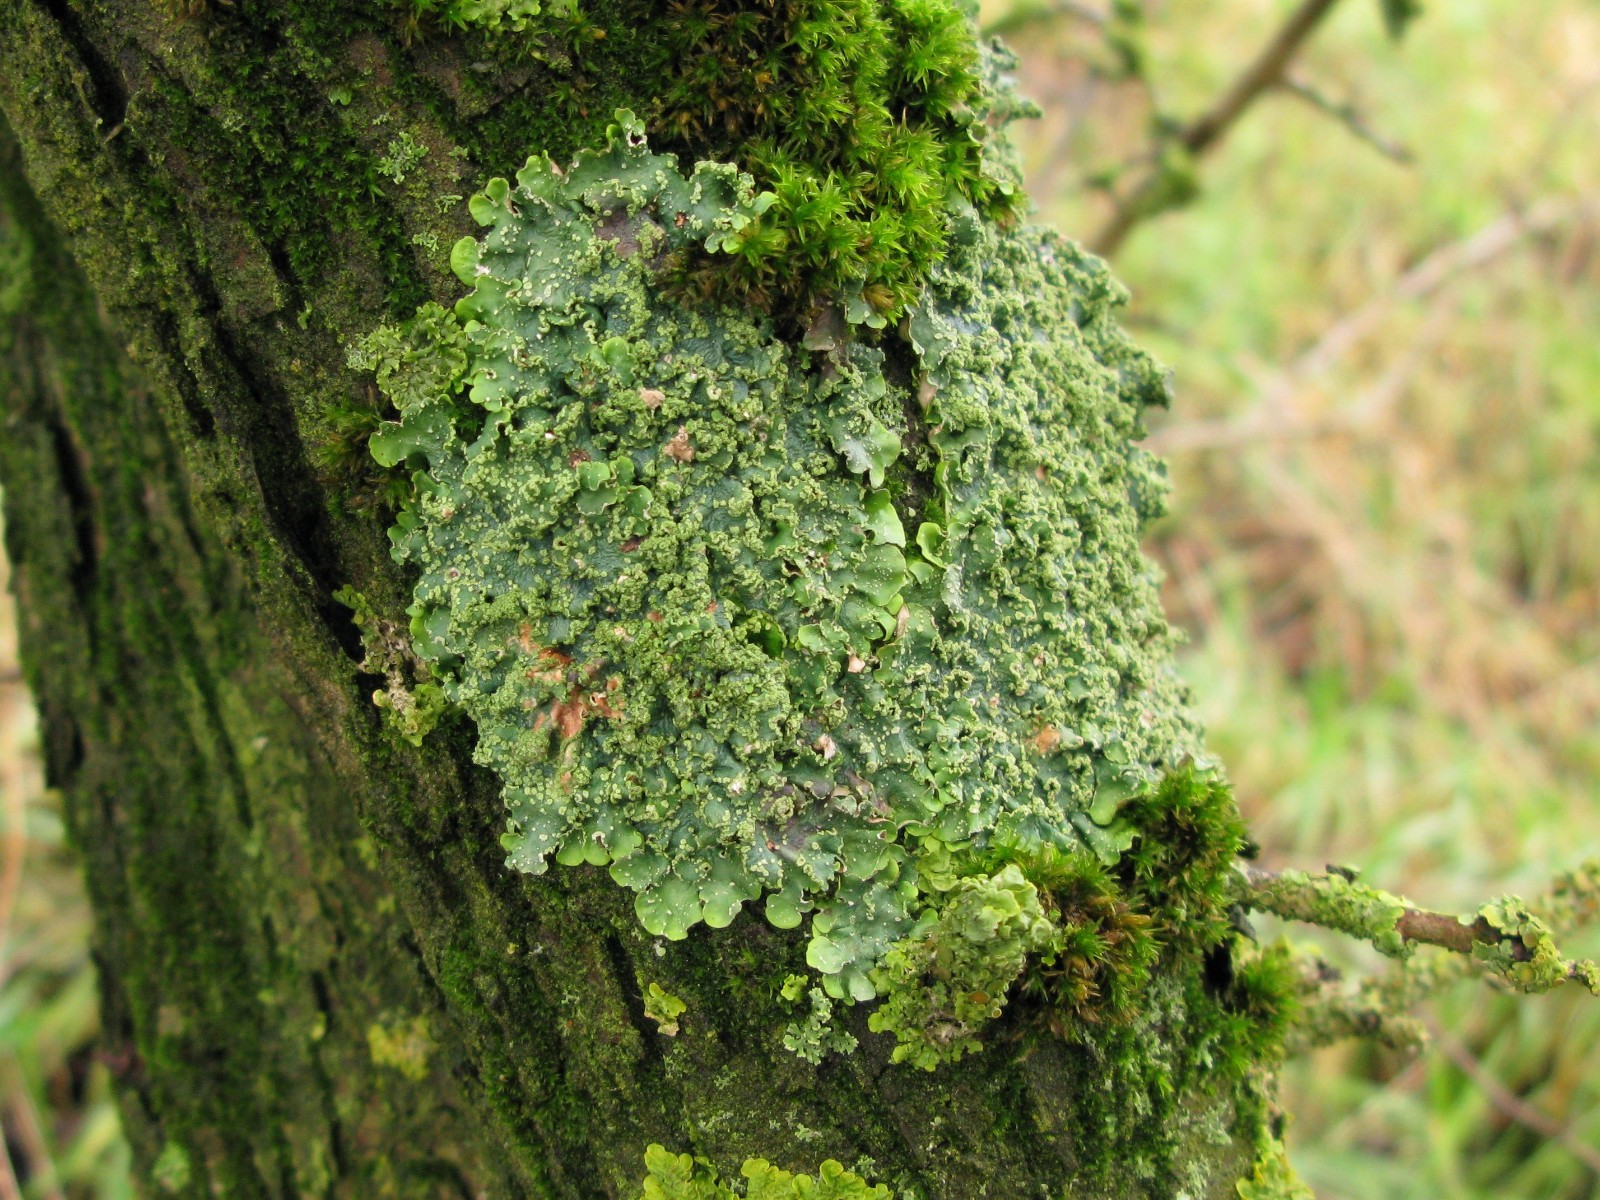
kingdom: Fungi
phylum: Ascomycota
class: Lecanoromycetes
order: Lecanorales
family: Parmeliaceae
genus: Punctelia
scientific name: Punctelia subrudecta
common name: punkt-skållav
